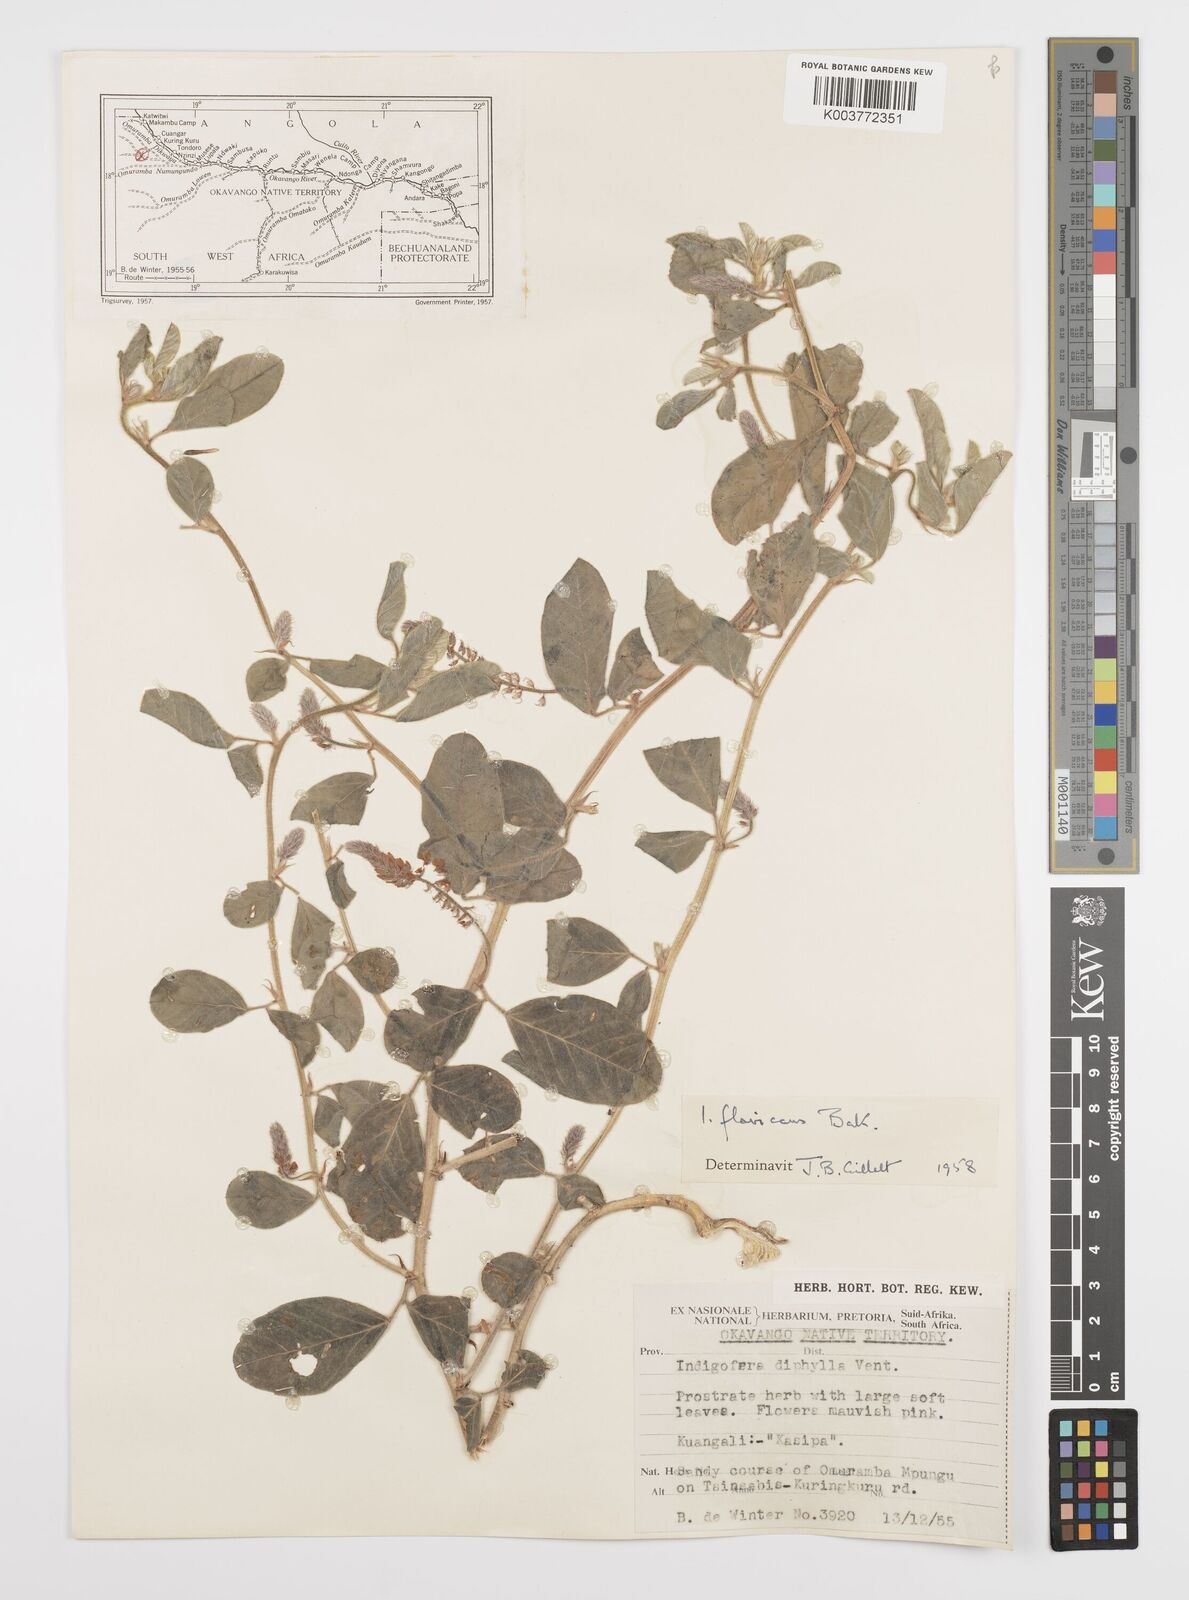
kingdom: Plantae
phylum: Tracheophyta
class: Magnoliopsida
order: Fabales
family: Fabaceae
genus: Indigofera
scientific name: Indigofera flavicans
